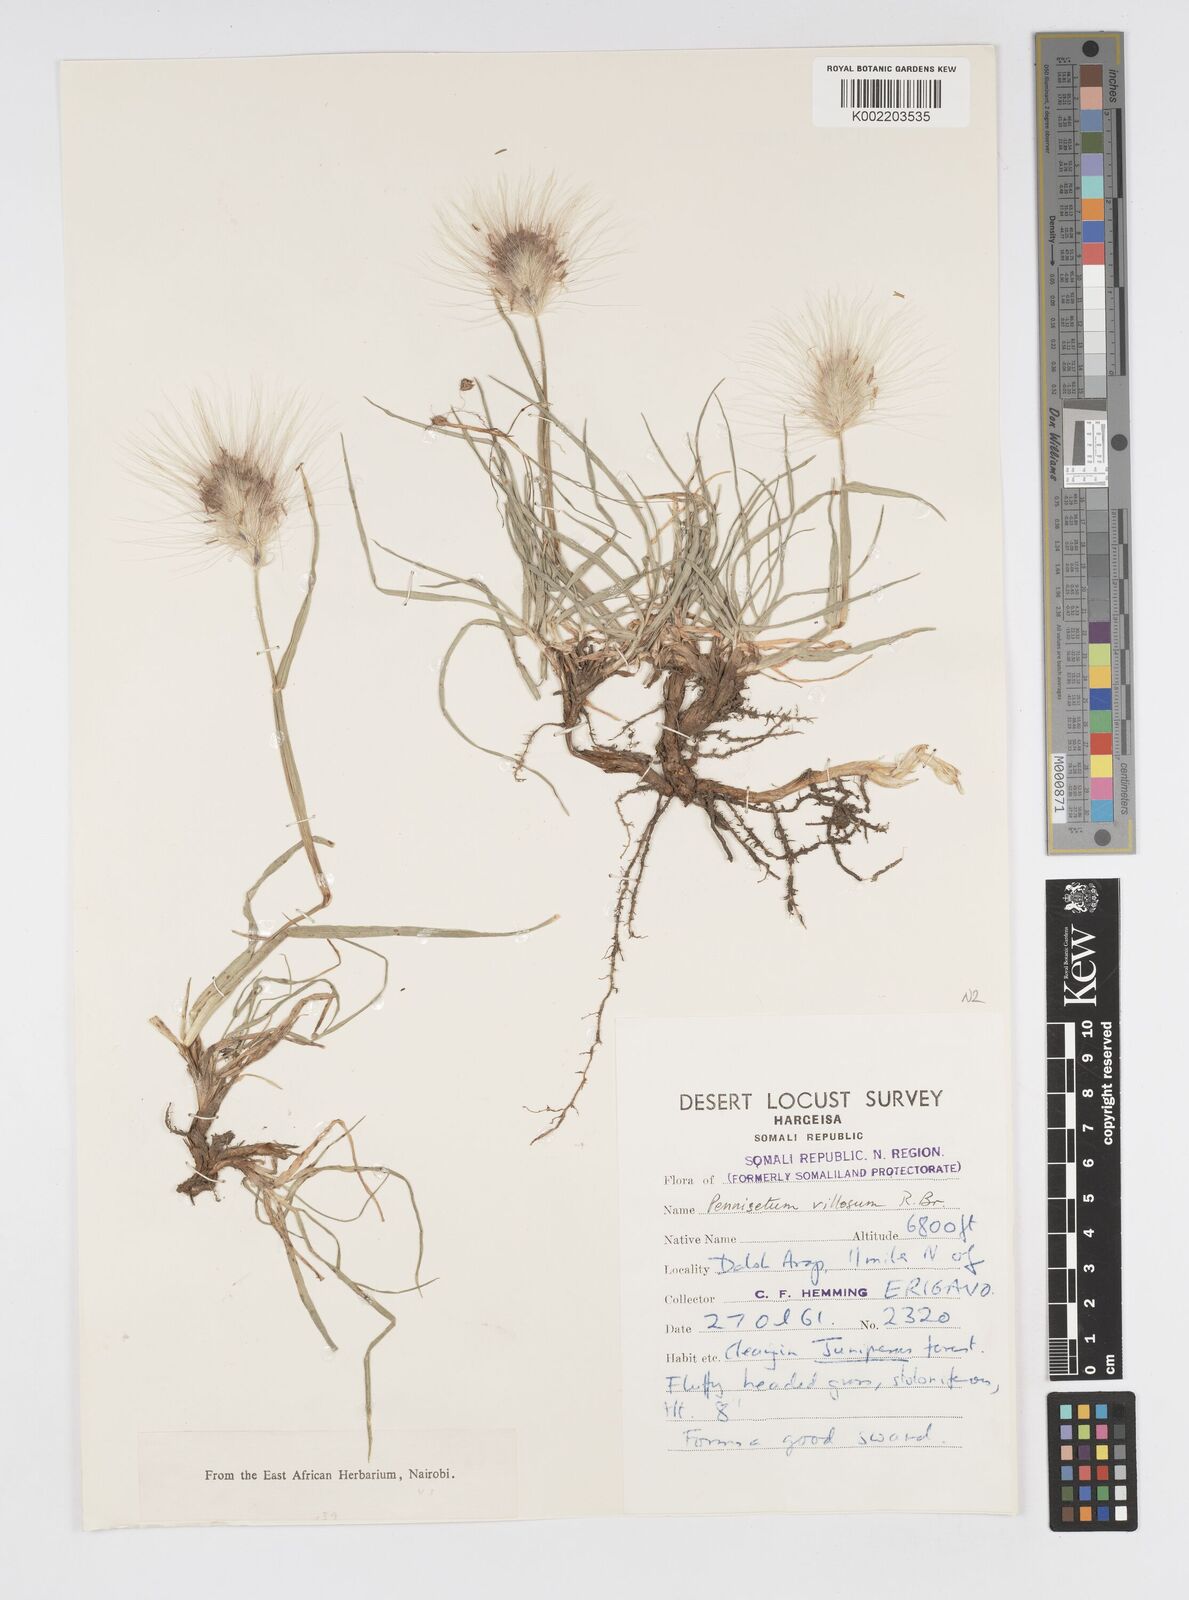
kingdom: Plantae
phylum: Tracheophyta
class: Liliopsida
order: Poales
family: Poaceae
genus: Cenchrus
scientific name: Cenchrus longisetus
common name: Feathertop
